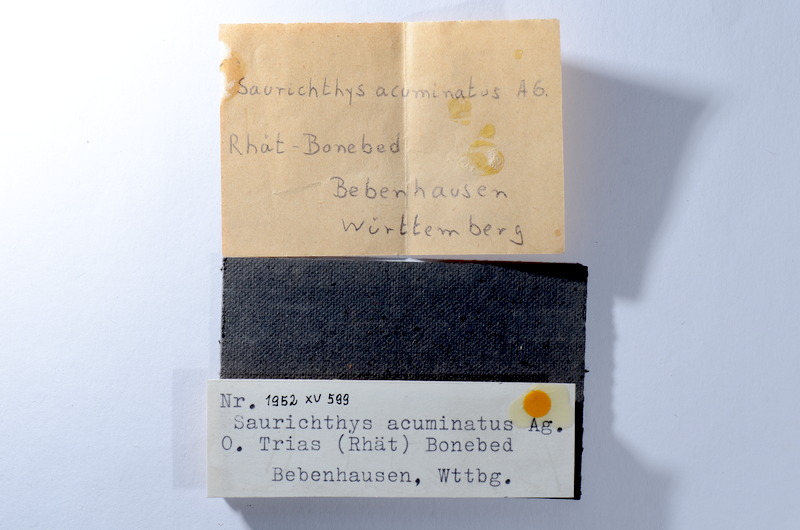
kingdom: Animalia
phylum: Chordata
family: Saurichthyidae
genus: Saurichthys
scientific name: Saurichthys acuminatus
